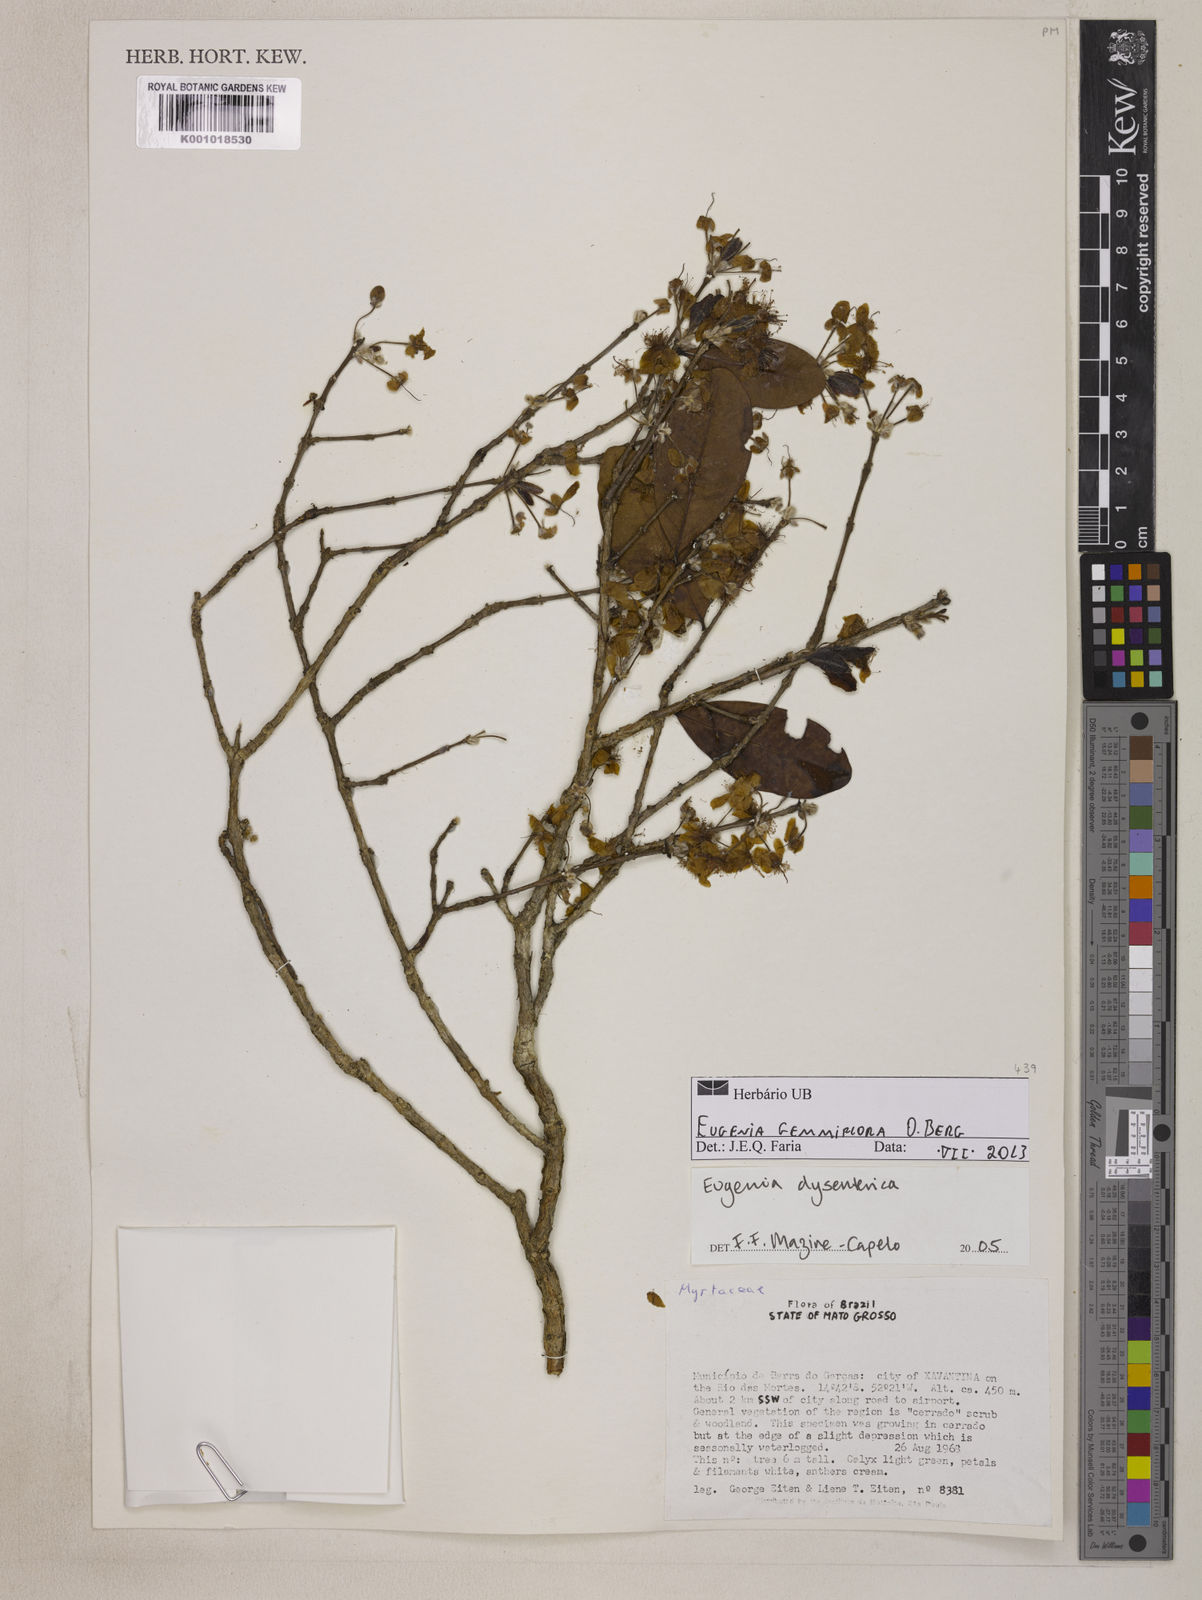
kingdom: Plantae
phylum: Tracheophyta
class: Magnoliopsida
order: Myrtales
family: Myrtaceae
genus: Eugenia
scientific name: Eugenia dysenterica
